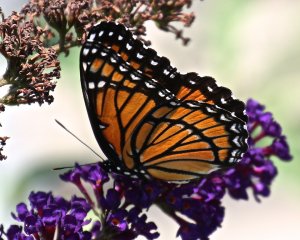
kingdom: Animalia
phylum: Arthropoda
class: Insecta
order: Lepidoptera
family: Nymphalidae
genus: Limenitis
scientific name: Limenitis archippus
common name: Viceroy
